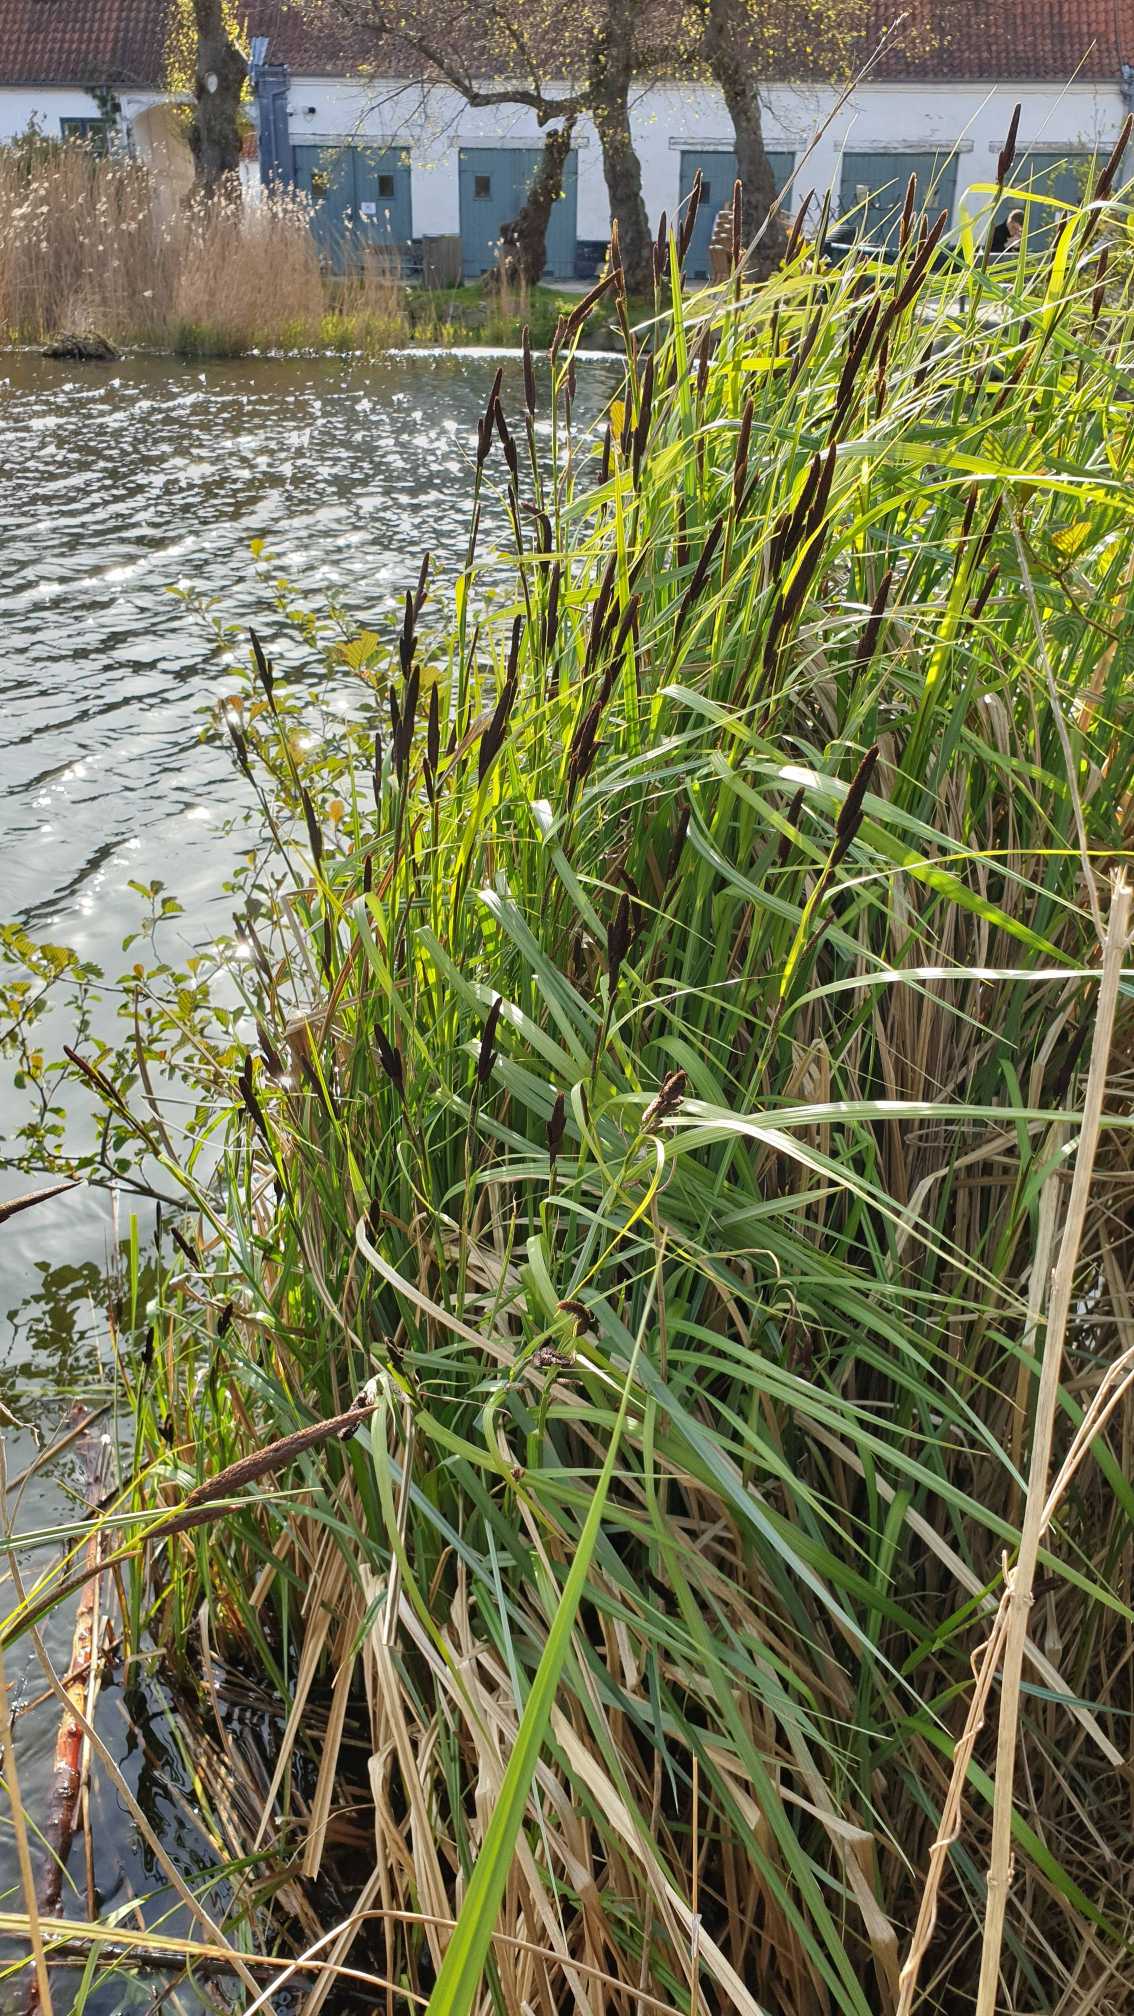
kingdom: Plantae
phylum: Tracheophyta
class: Liliopsida
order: Poales
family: Cyperaceae
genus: Carex
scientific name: Carex acuta
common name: Nikkende star
